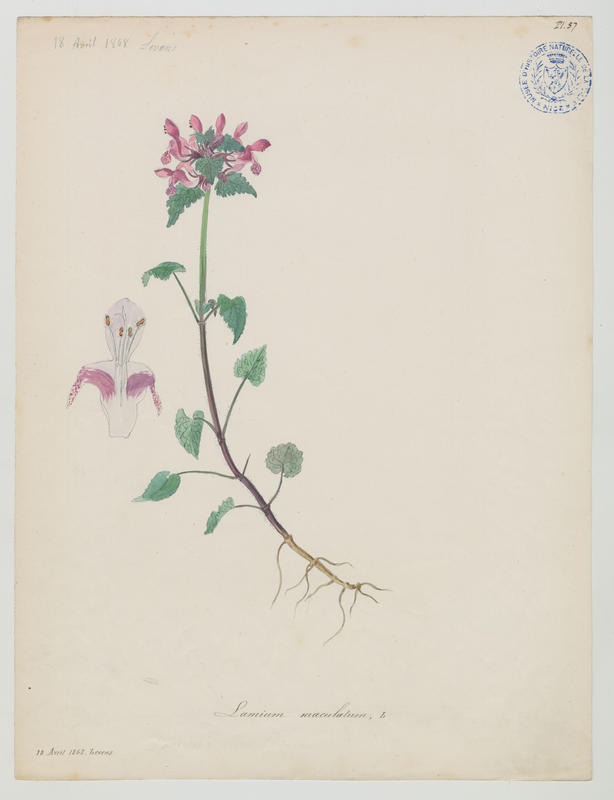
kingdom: Plantae
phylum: Tracheophyta
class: Magnoliopsida
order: Lamiales
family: Lamiaceae
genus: Lamium
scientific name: Lamium maculatum
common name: Spotted dead-nettle
